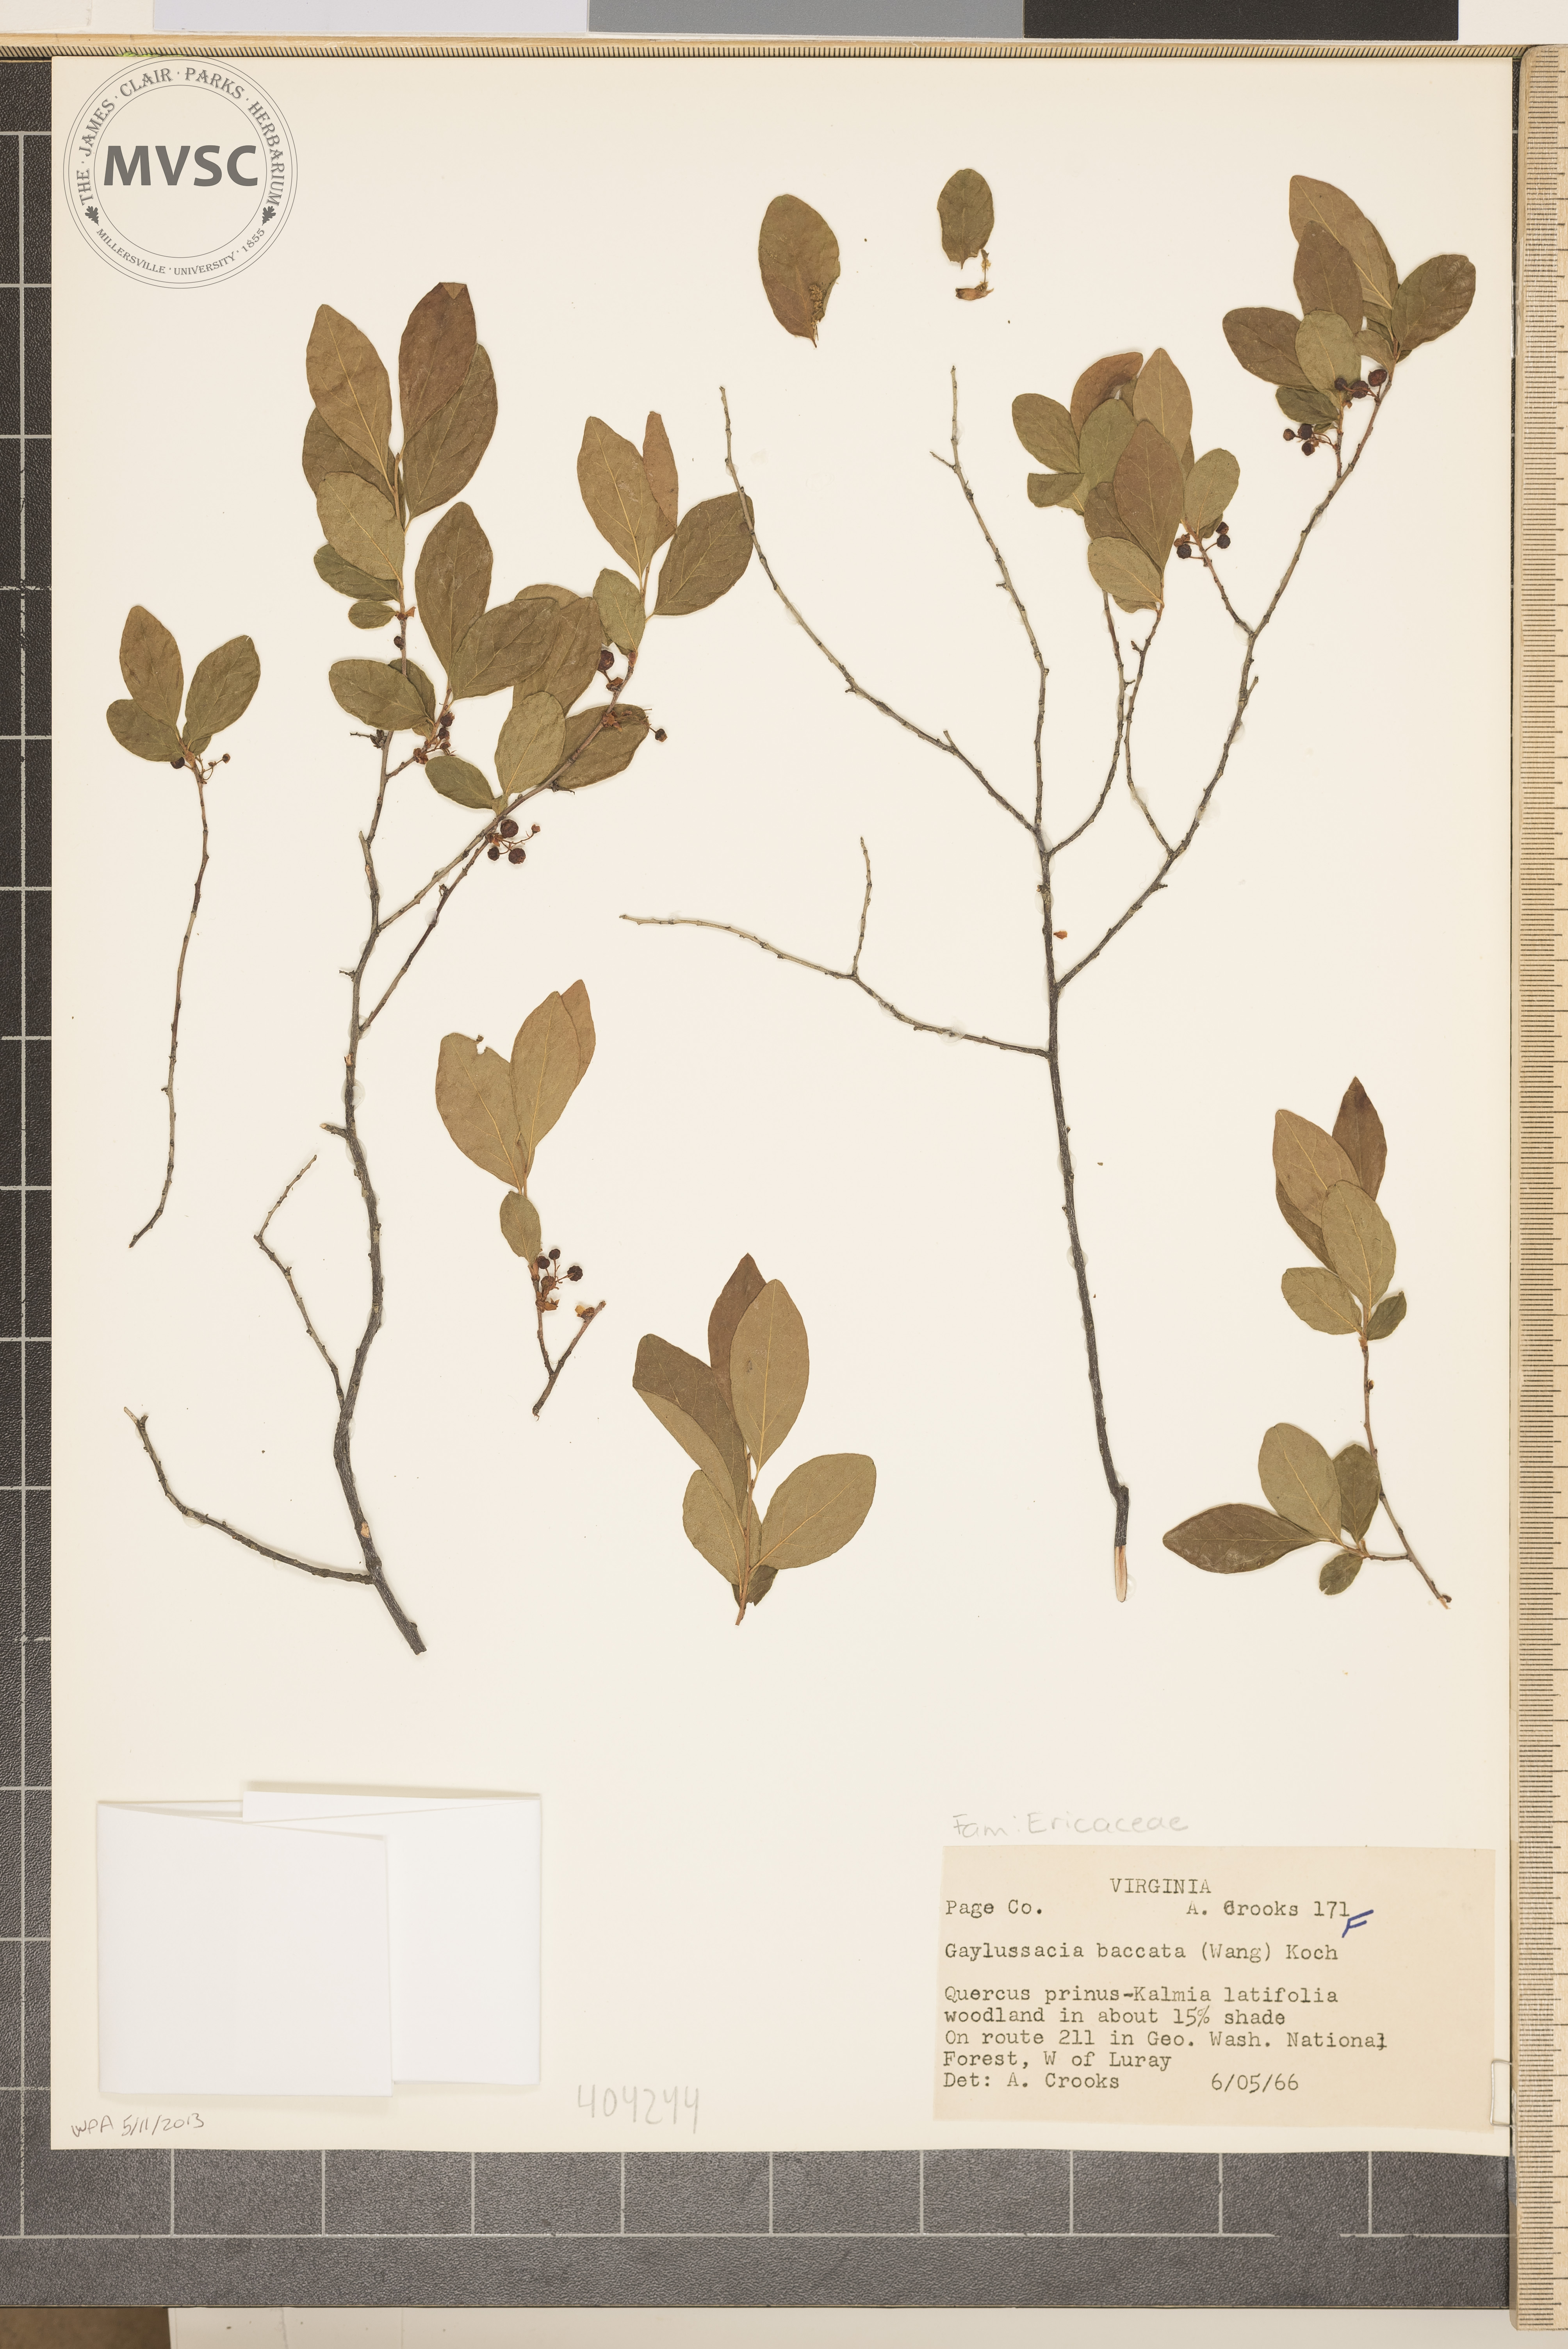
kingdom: Plantae
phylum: Tracheophyta
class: Magnoliopsida
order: Ericales
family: Ericaceae
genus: Gaylussacia
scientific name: Gaylussacia baccata
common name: Black huckleberry
